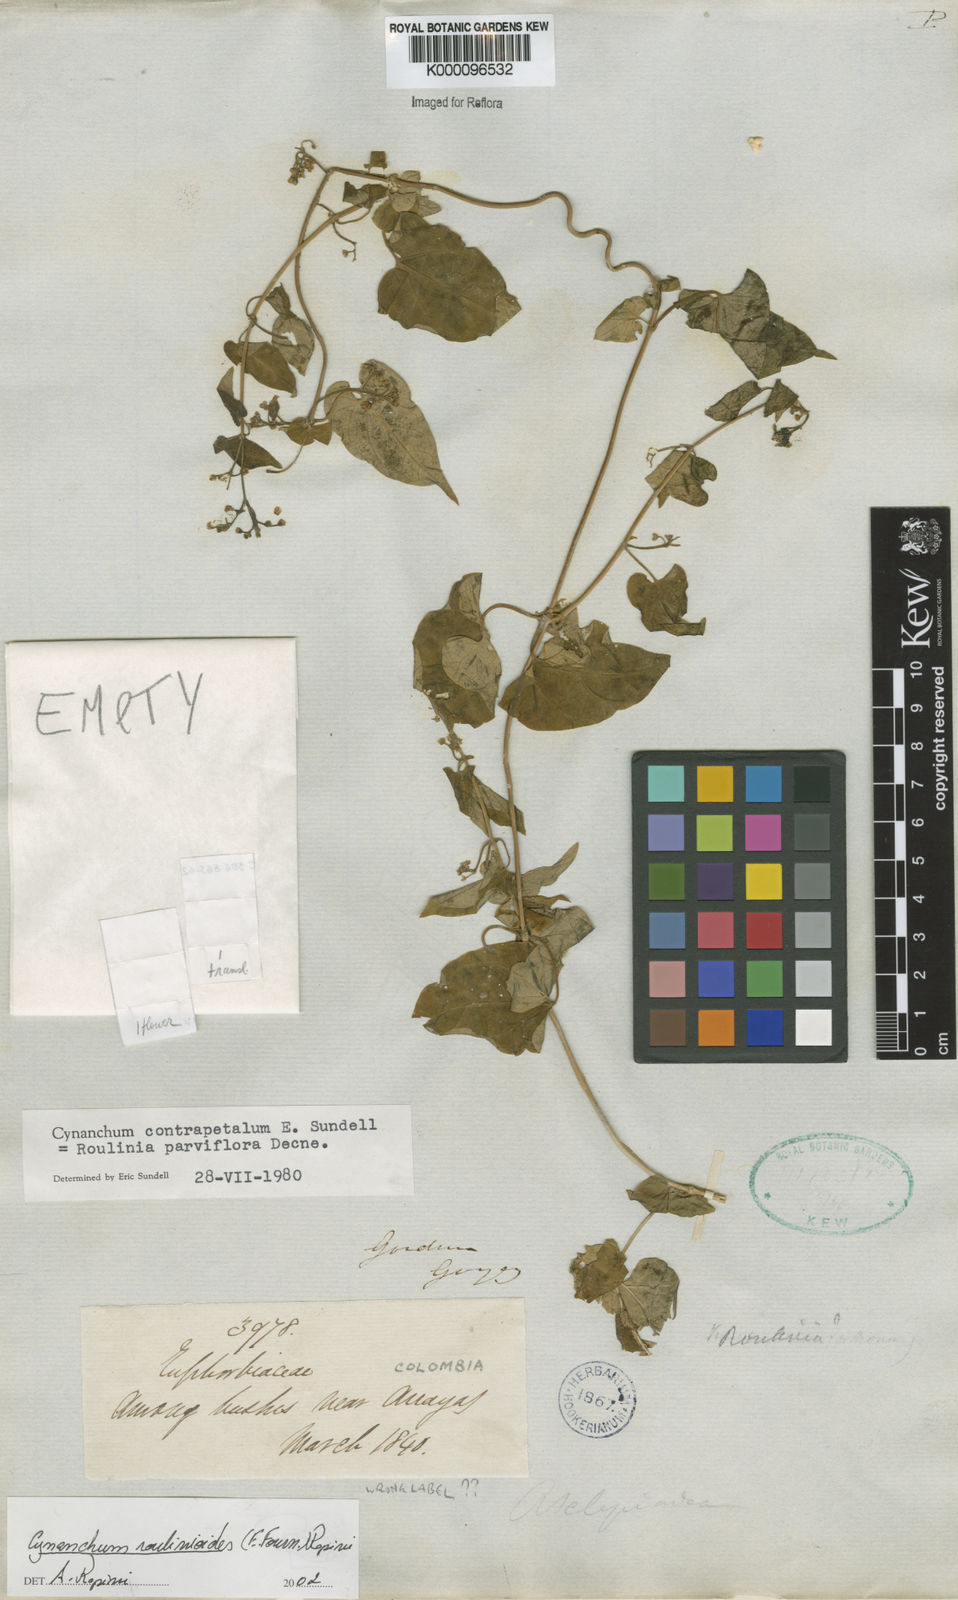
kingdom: Plantae
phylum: Tracheophyta
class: Magnoliopsida
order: Gentianales
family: Apocynaceae
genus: Cynanchum
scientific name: Cynanchum roulinioides
